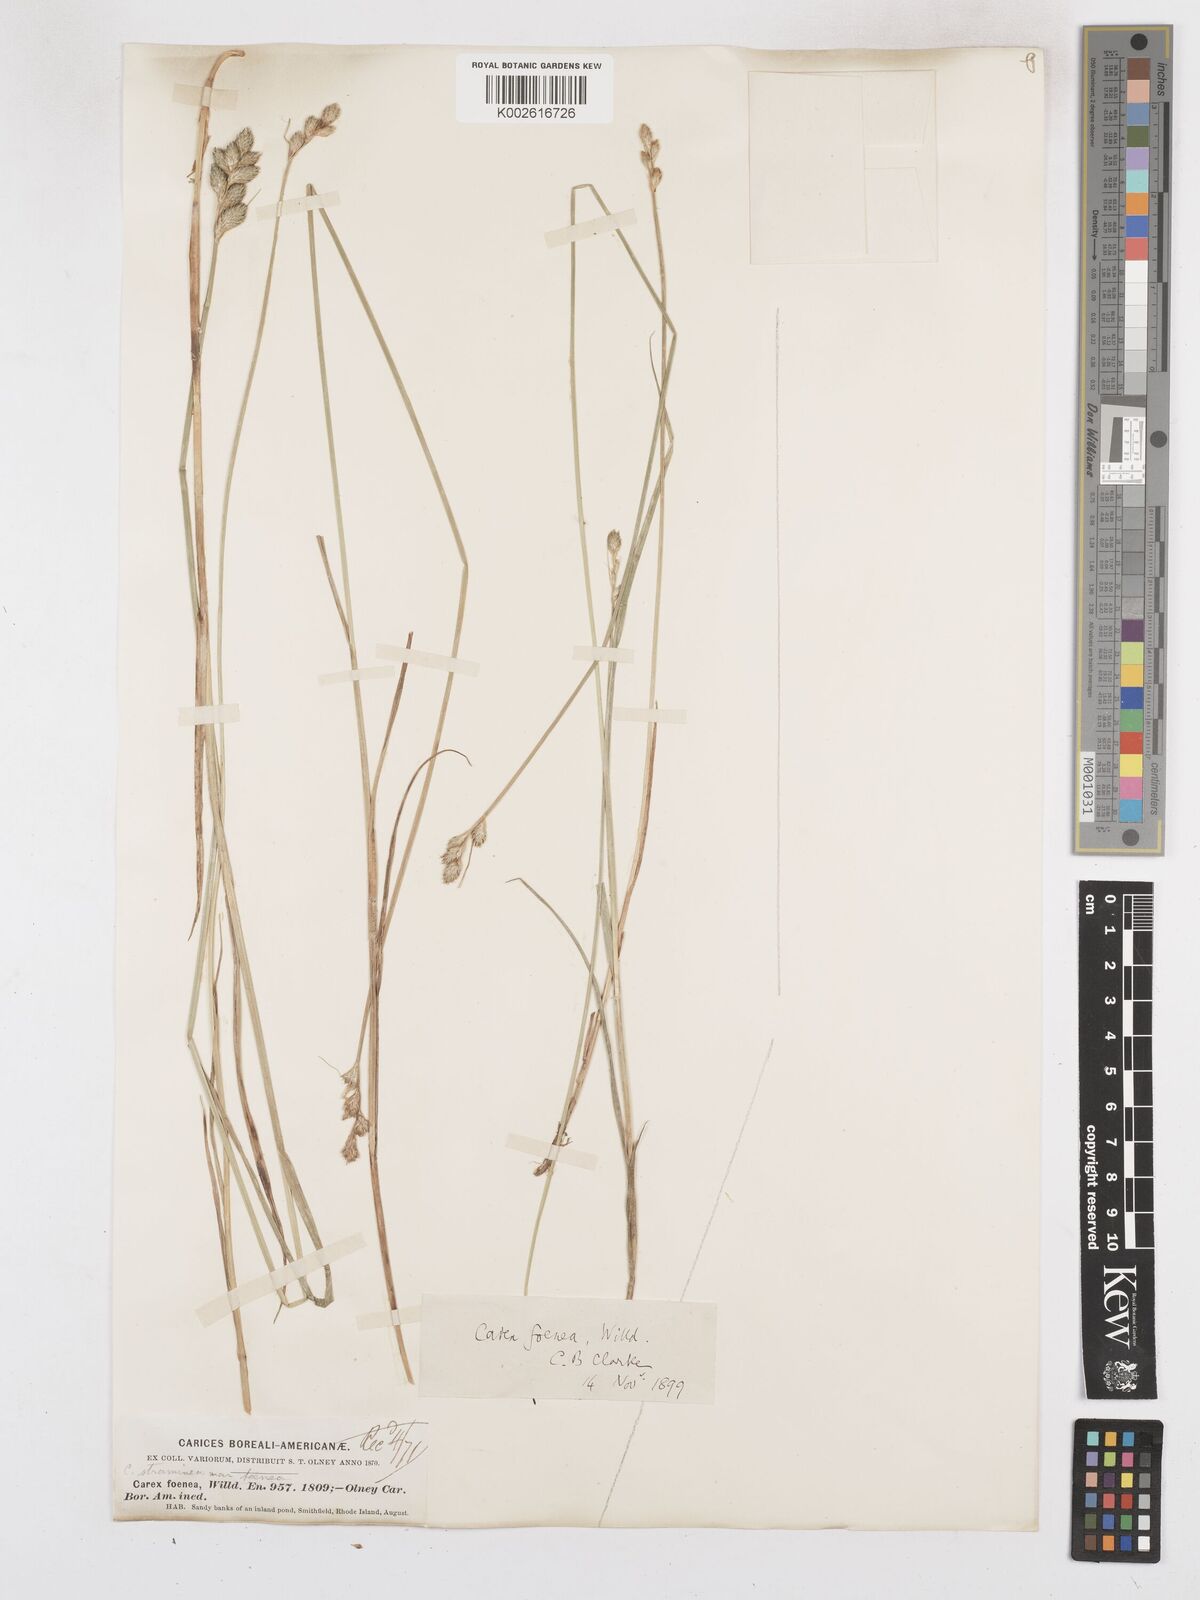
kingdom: Plantae
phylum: Tracheophyta
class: Liliopsida
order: Poales
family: Cyperaceae
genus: Carex
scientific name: Carex argyrantha
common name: Silvery-flowered sedge
